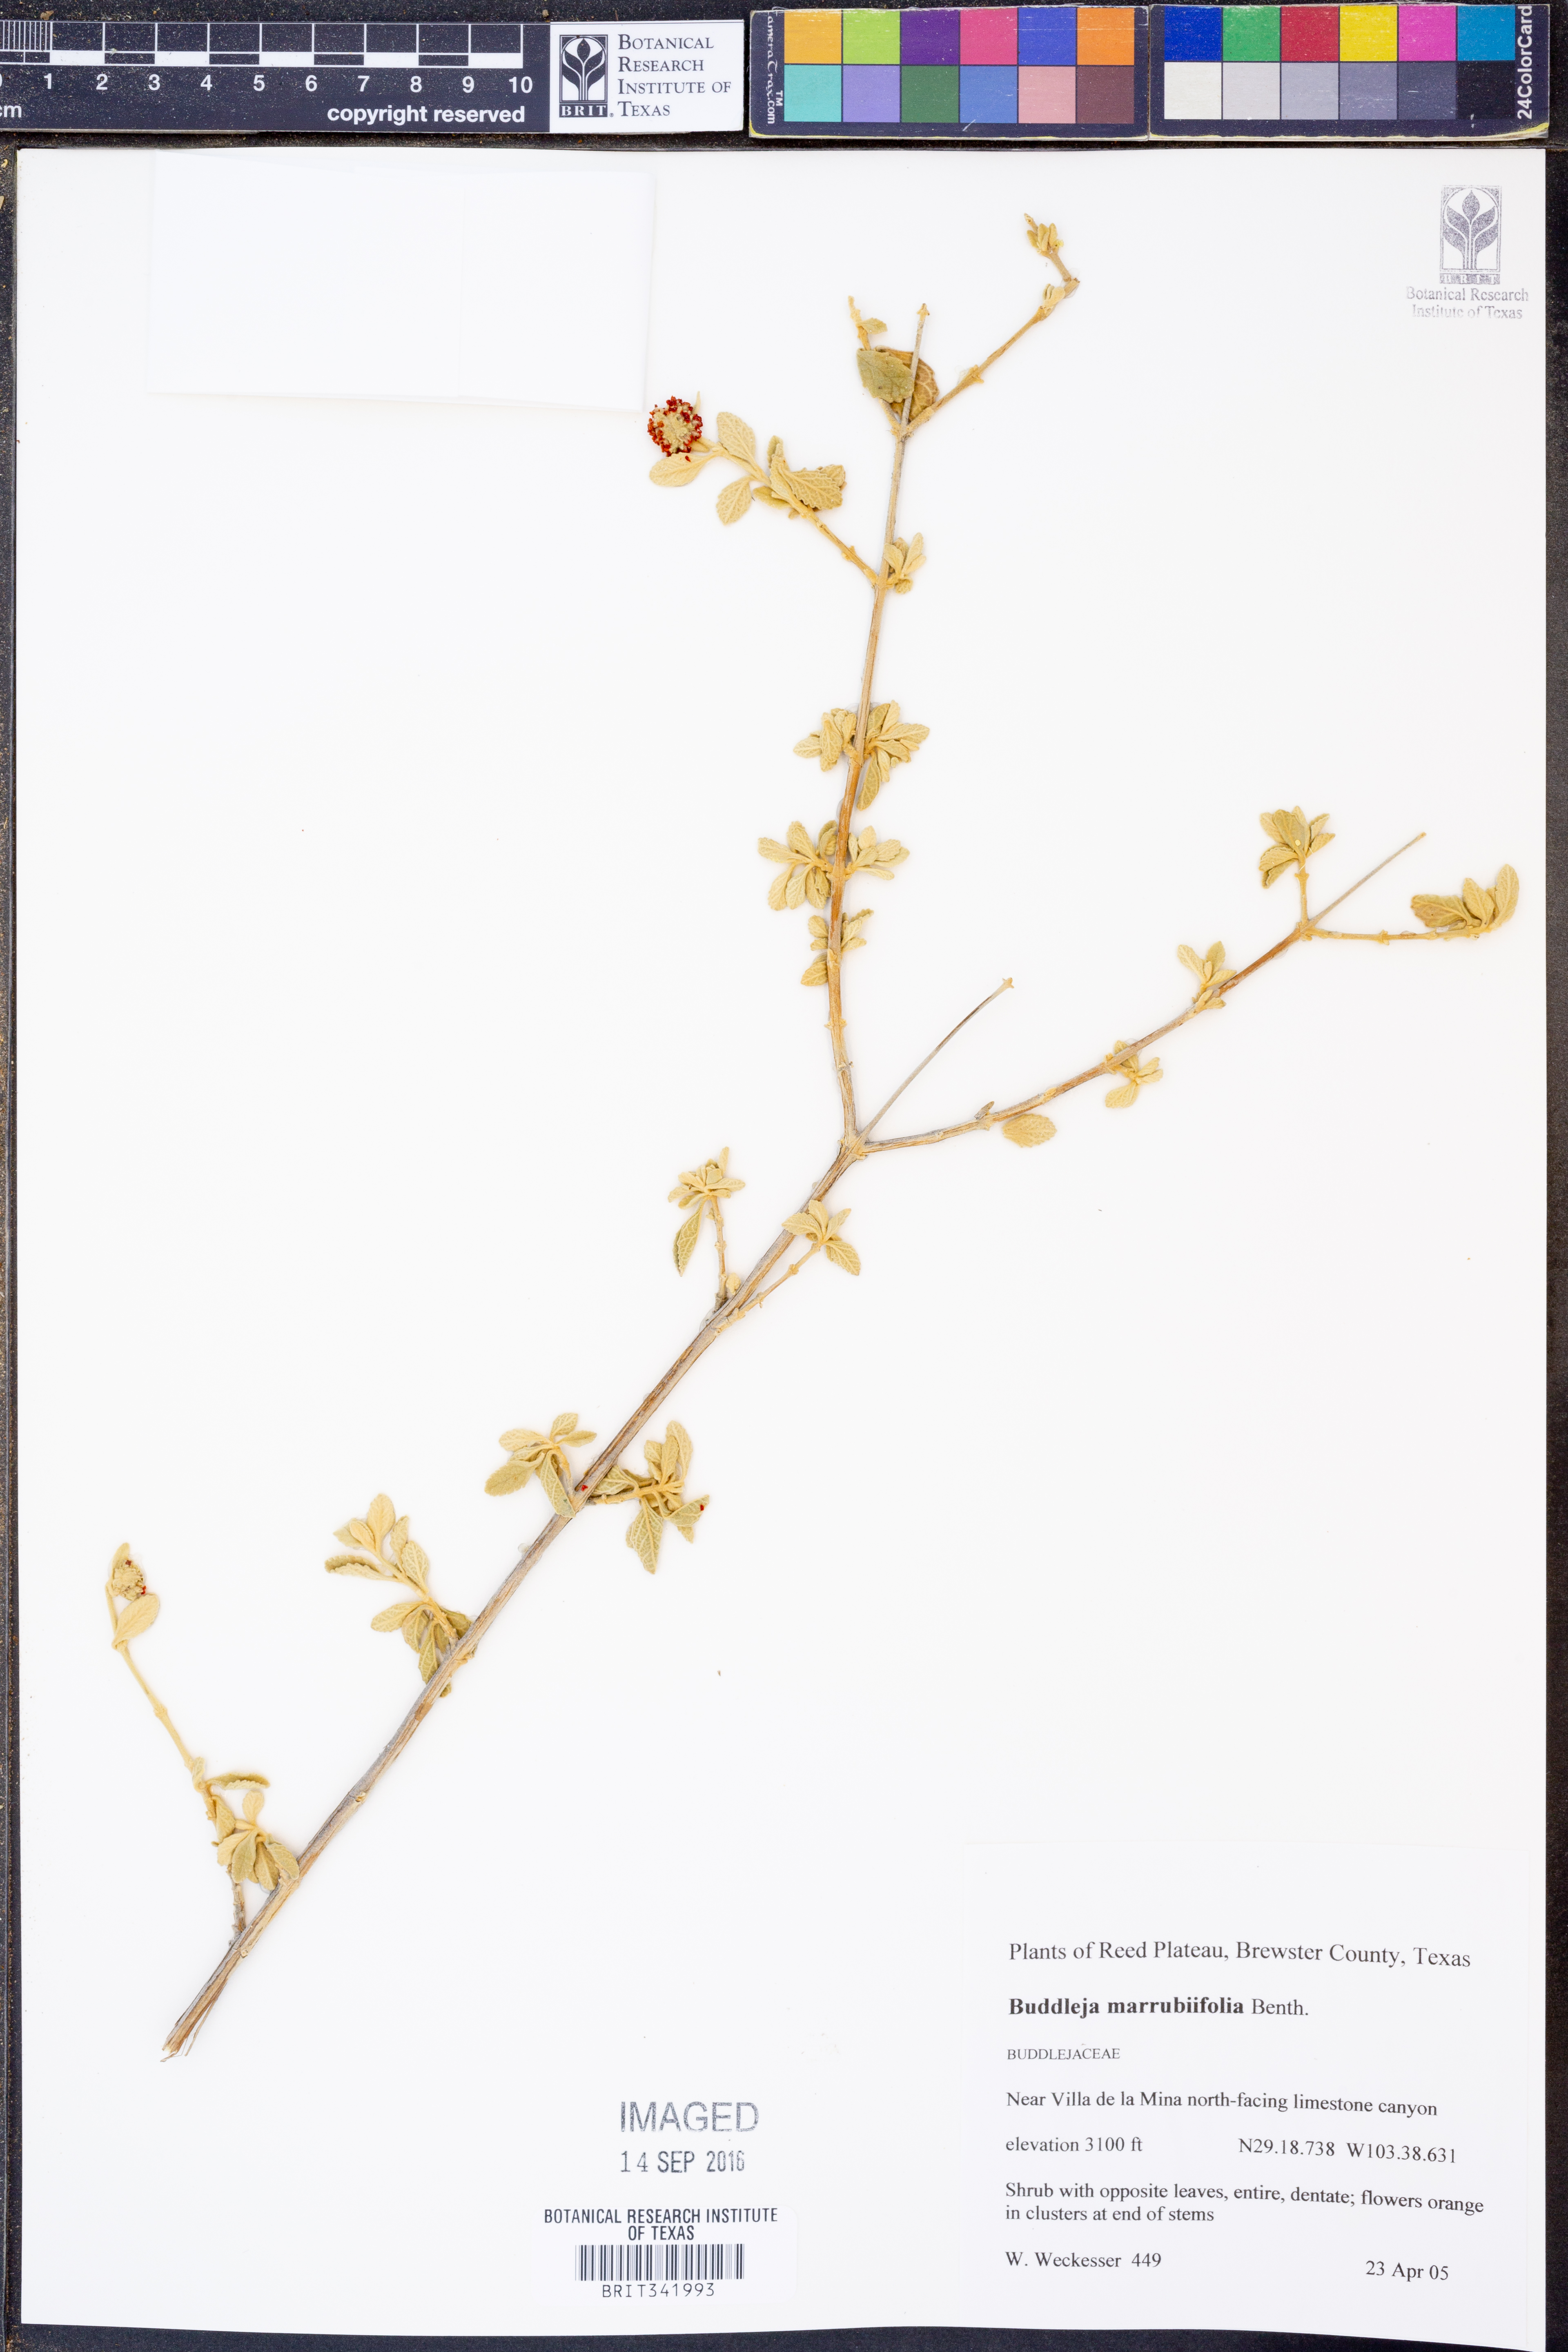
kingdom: Plantae
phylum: Tracheophyta
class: Magnoliopsida
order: Lamiales
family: Scrophulariaceae
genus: Buddleja
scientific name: Buddleja marrubiifolia
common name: Woolly butterfly-bush
